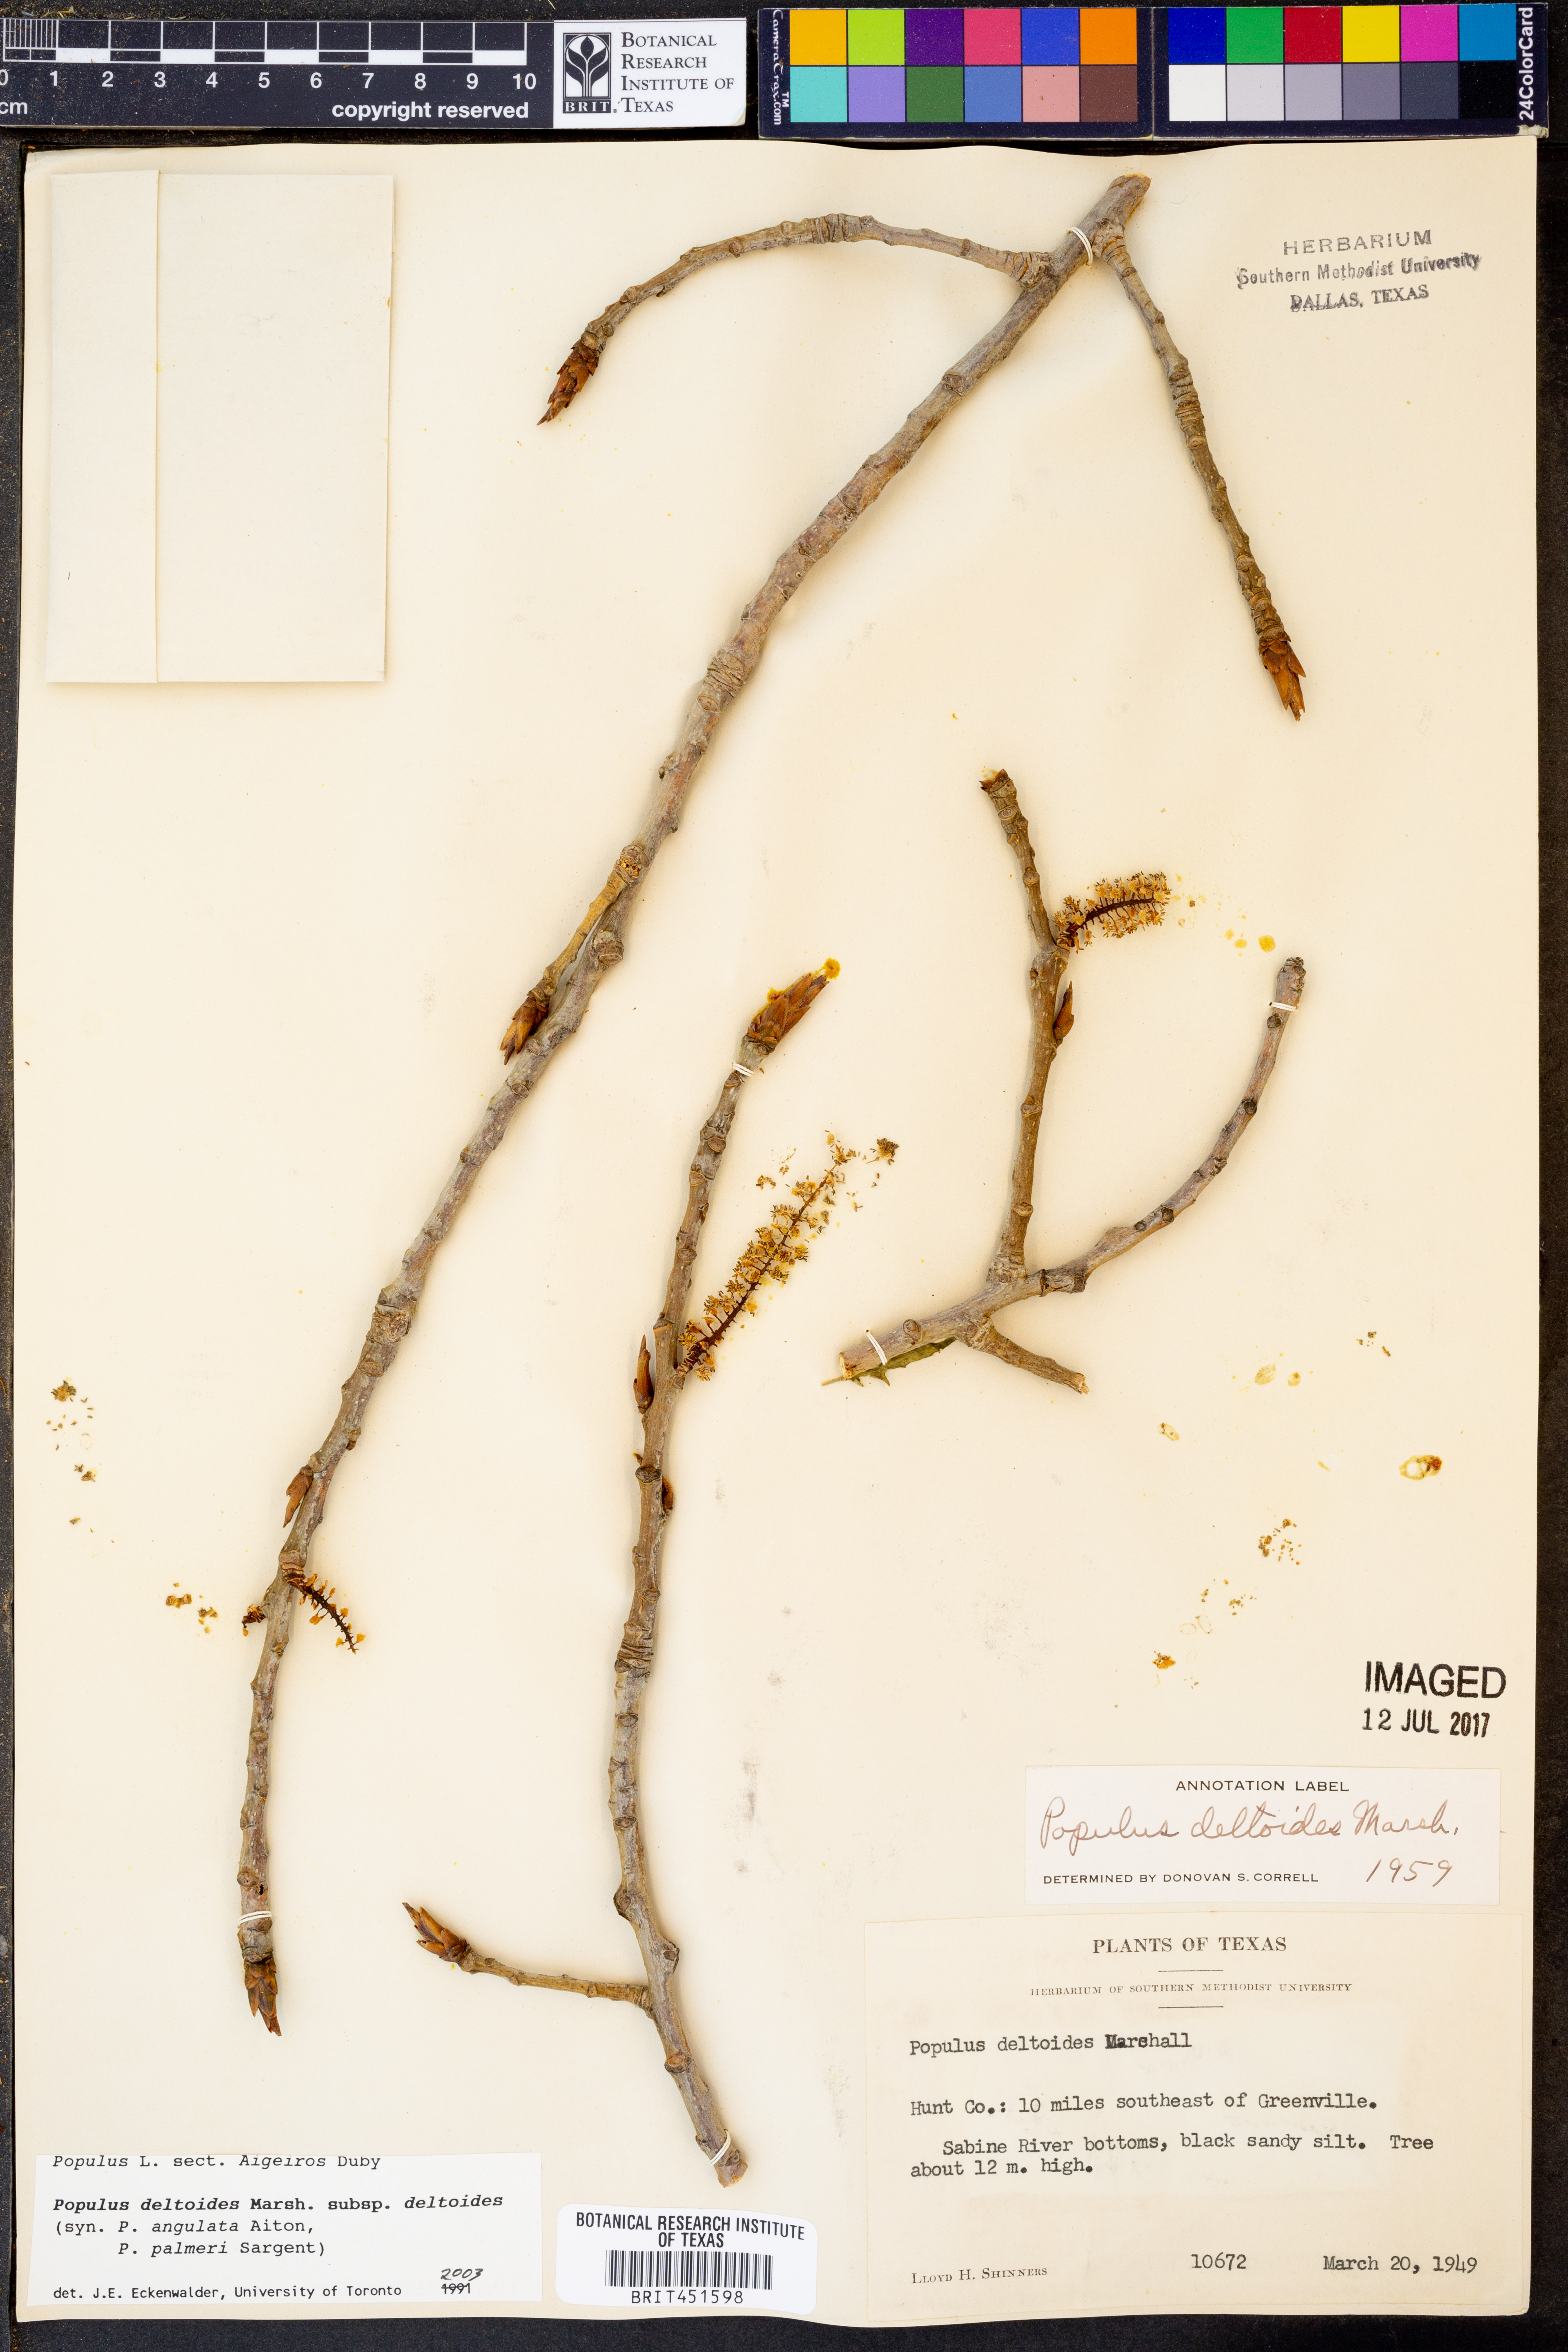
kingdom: Plantae
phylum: Tracheophyta
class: Magnoliopsida
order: Malpighiales
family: Salicaceae
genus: Populus
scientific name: Populus deltoides
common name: Eastern cottonwood
